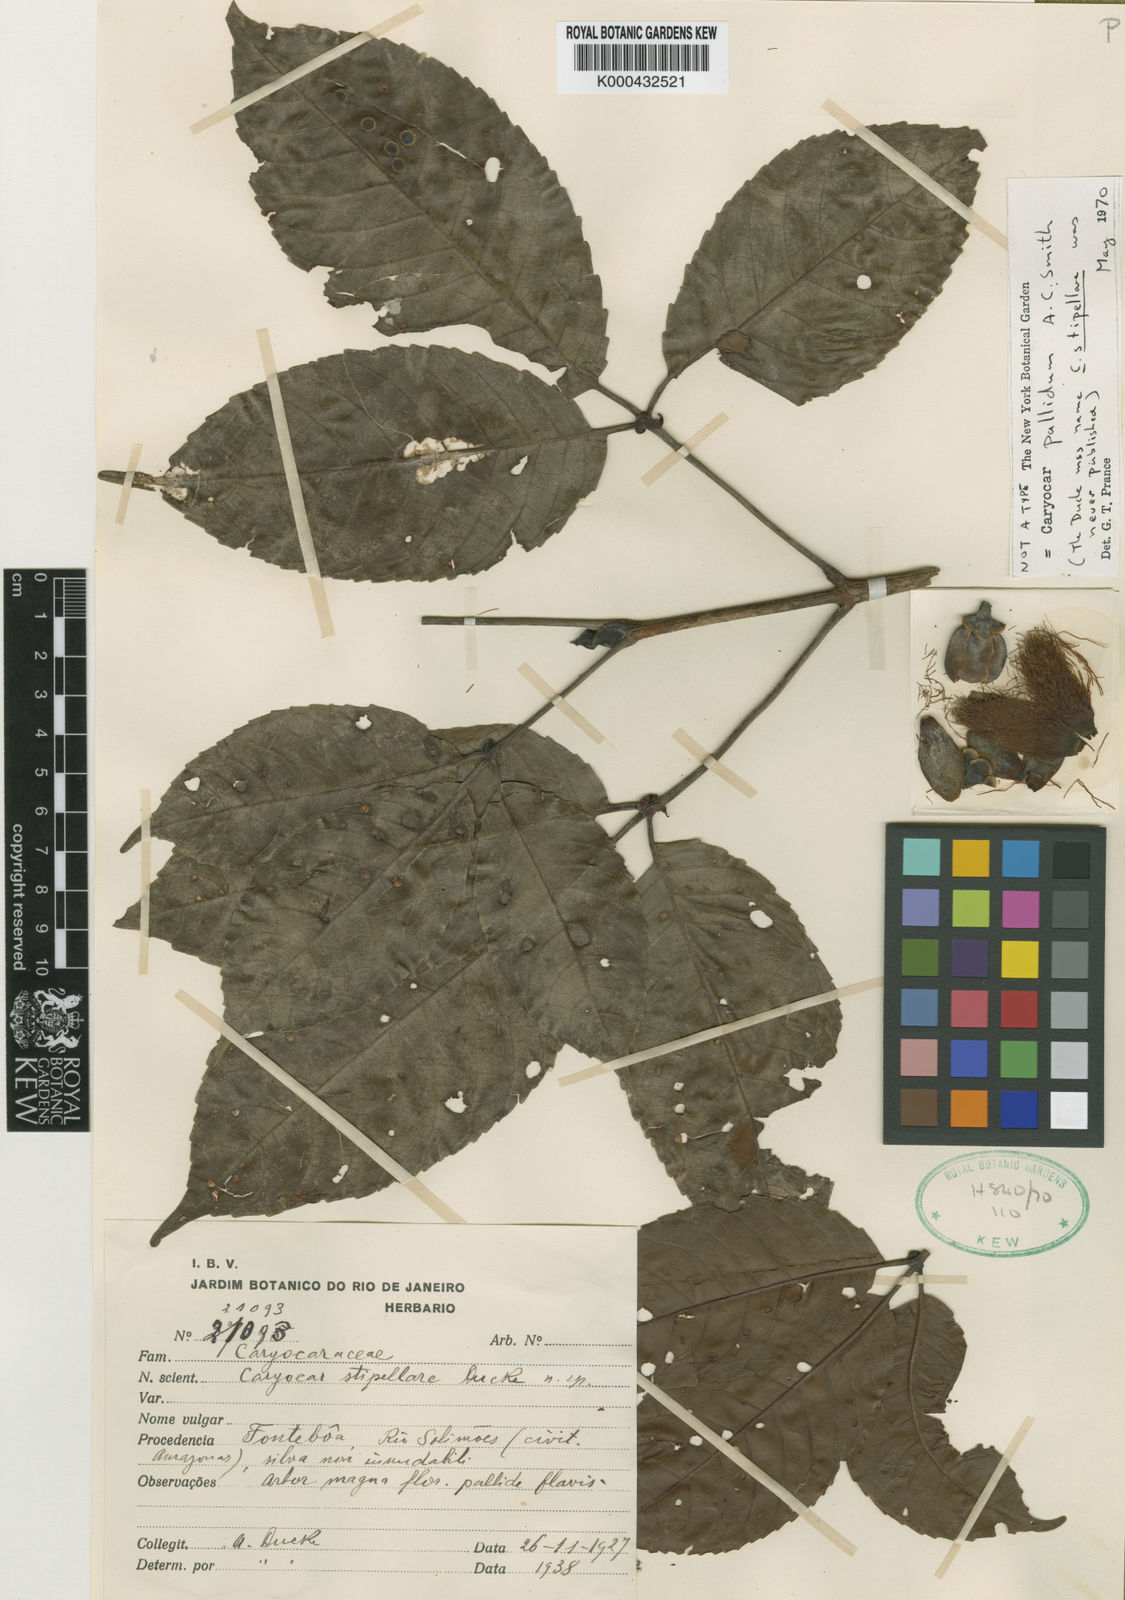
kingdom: Plantae
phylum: Tracheophyta
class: Magnoliopsida
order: Malpighiales
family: Caryocaraceae
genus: Caryocar
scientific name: Caryocar
